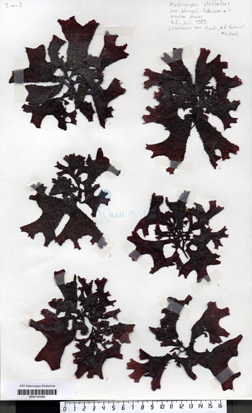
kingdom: Plantae
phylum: Rhodophyta
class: Florideophyceae
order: Gigartinales
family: Phyllophoraceae
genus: Mastocarpus
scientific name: Mastocarpus stellatus
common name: False irish moss
